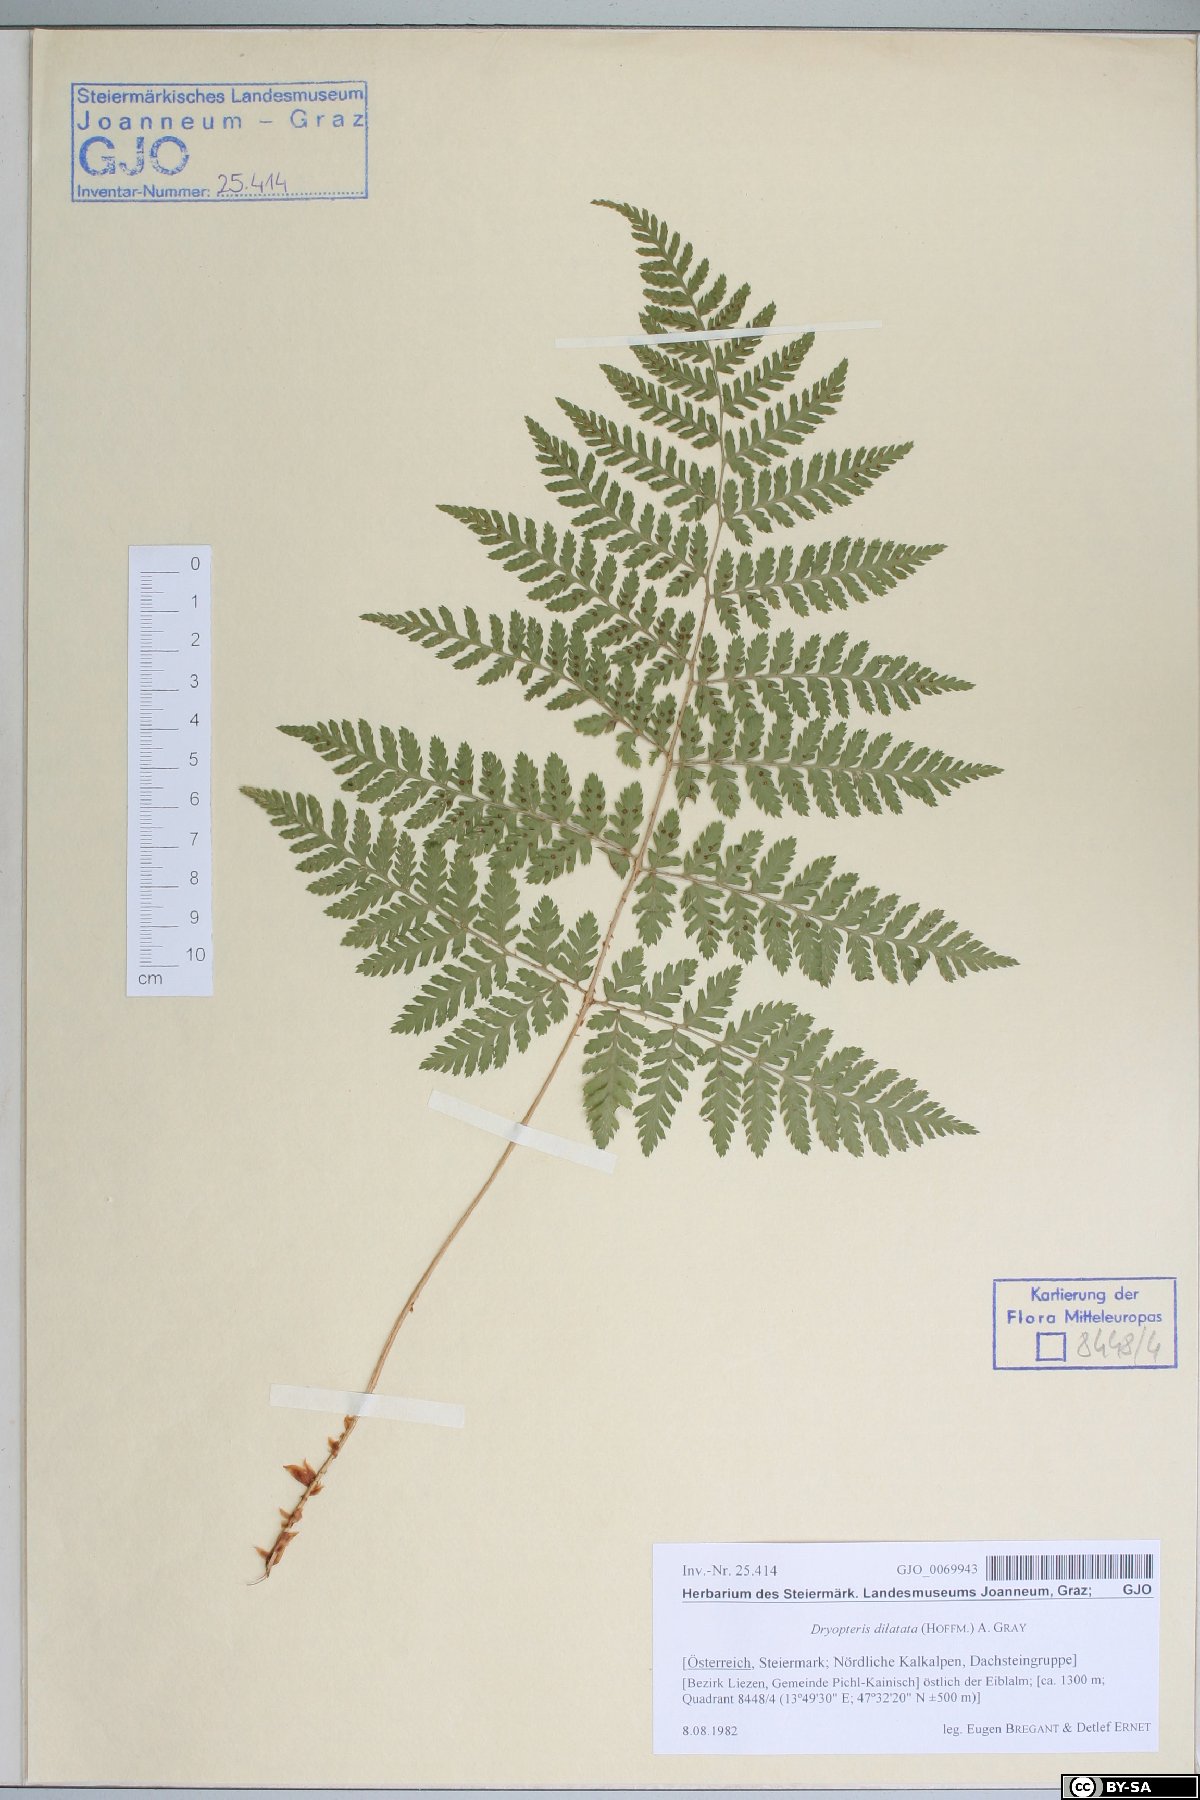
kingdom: Plantae
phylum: Tracheophyta
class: Polypodiopsida
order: Polypodiales
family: Dryopteridaceae
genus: Dryopteris
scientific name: Dryopteris dilatata
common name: Broad buckler-fern
